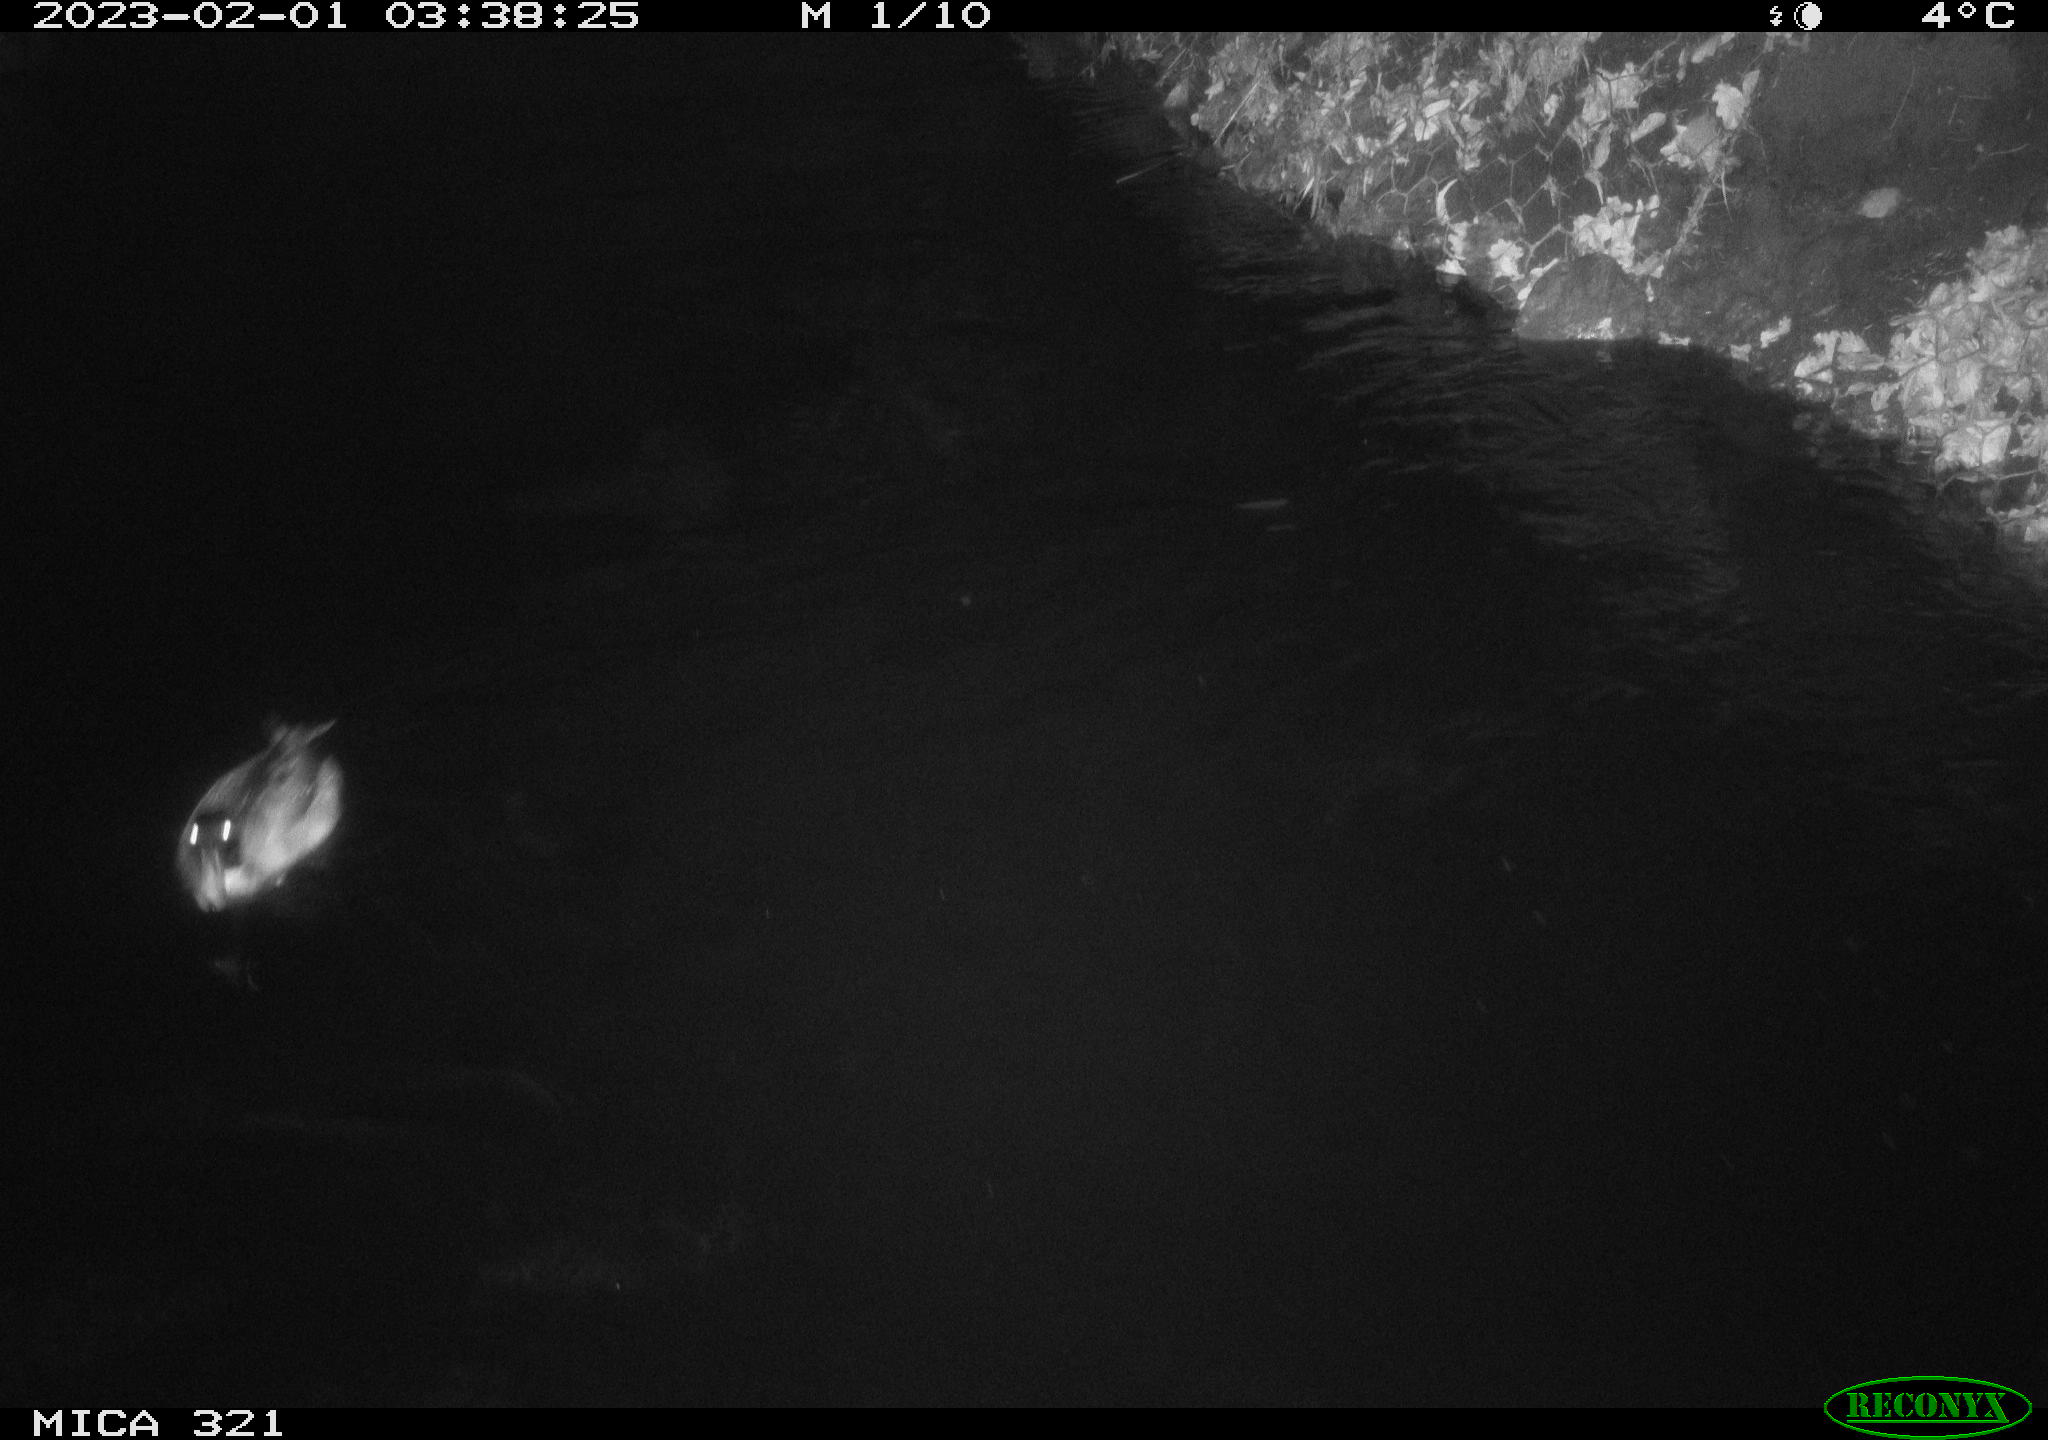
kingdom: Animalia
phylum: Chordata
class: Aves
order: Anseriformes
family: Anatidae
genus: Anas
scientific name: Anas
